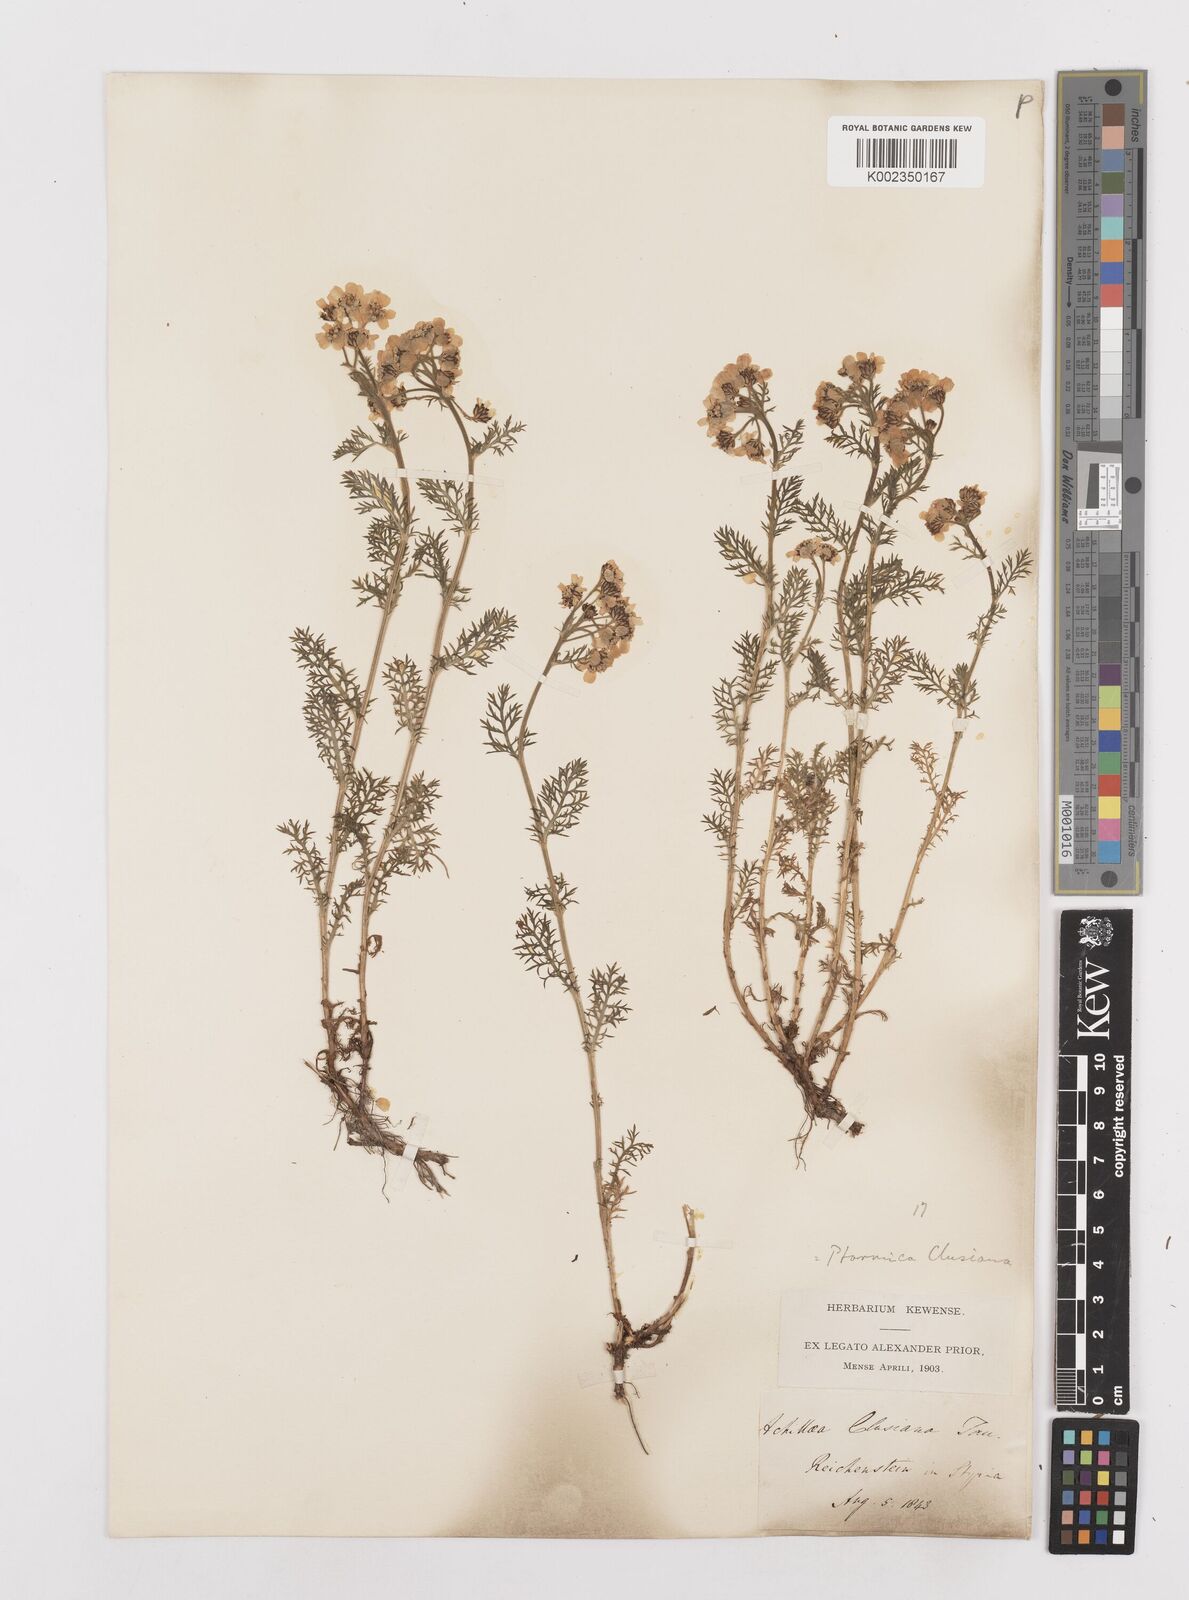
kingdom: Plantae
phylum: Tracheophyta
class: Magnoliopsida
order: Asterales
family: Asteraceae
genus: Achillea
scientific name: Achillea clusiana
